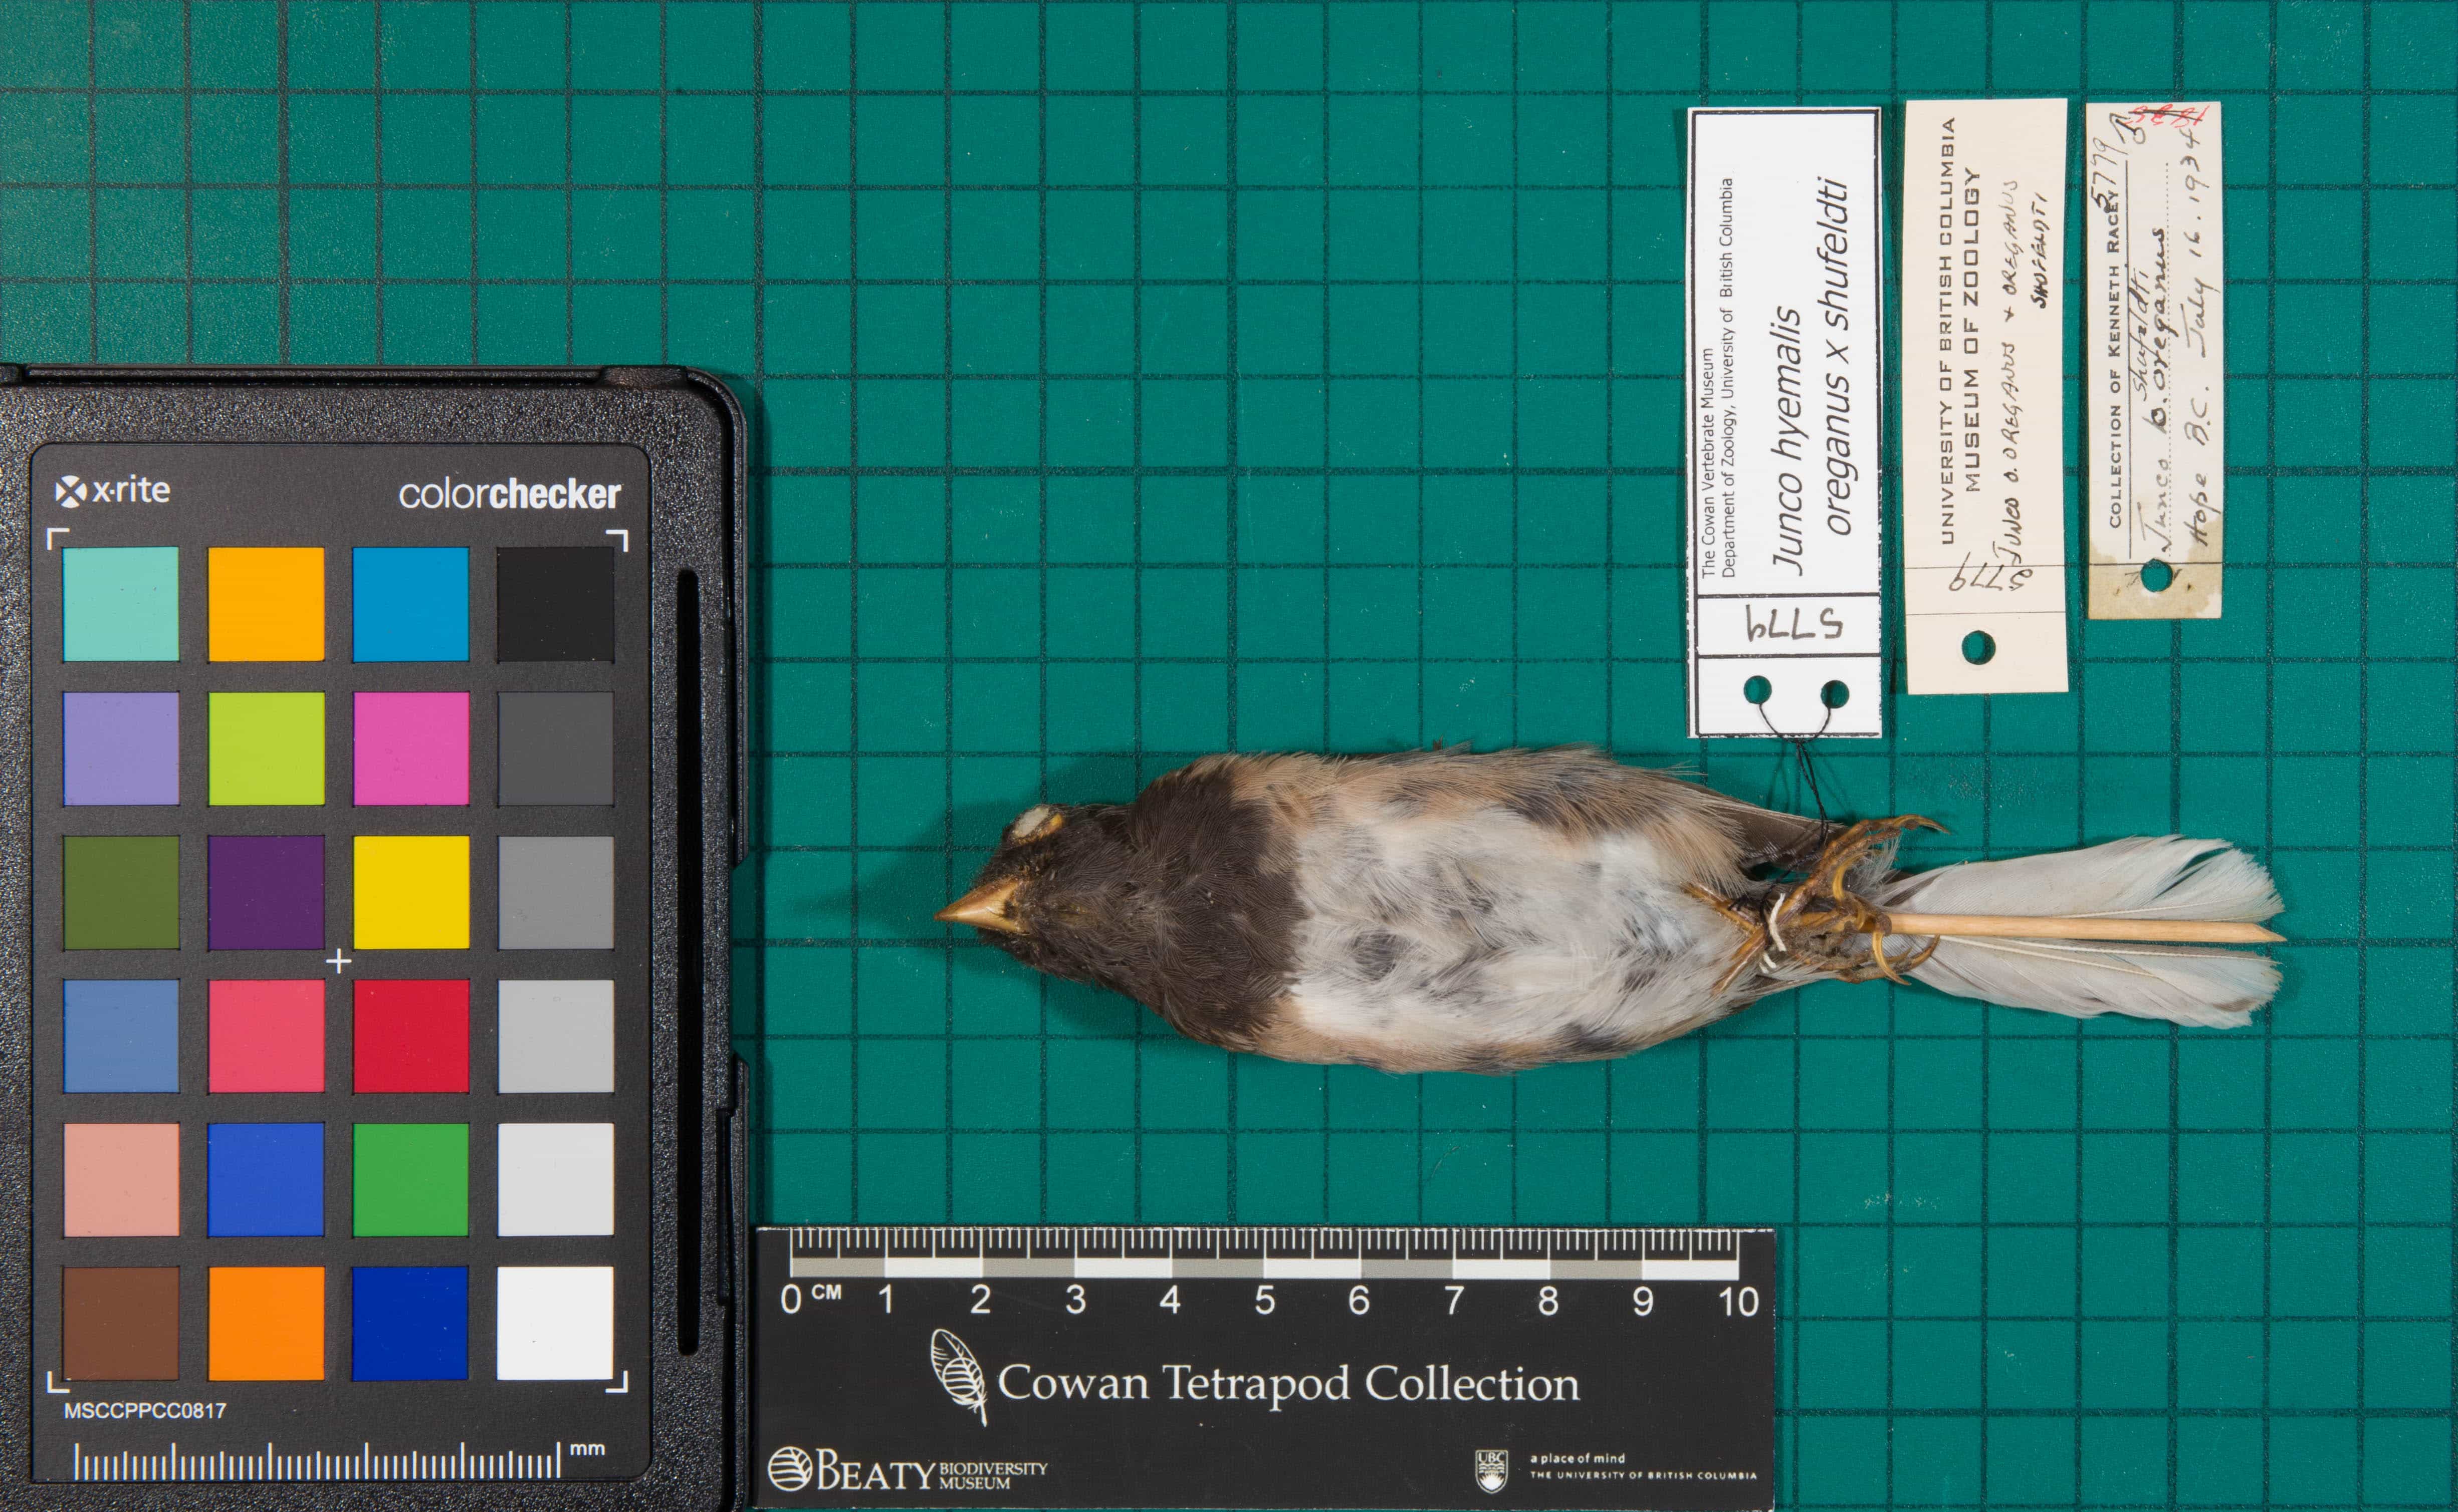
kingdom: Animalia
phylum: Chordata
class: Aves
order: Passeriformes
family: Passerellidae
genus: Junco
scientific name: Junco hyemalis
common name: Dark-eyed Junco
